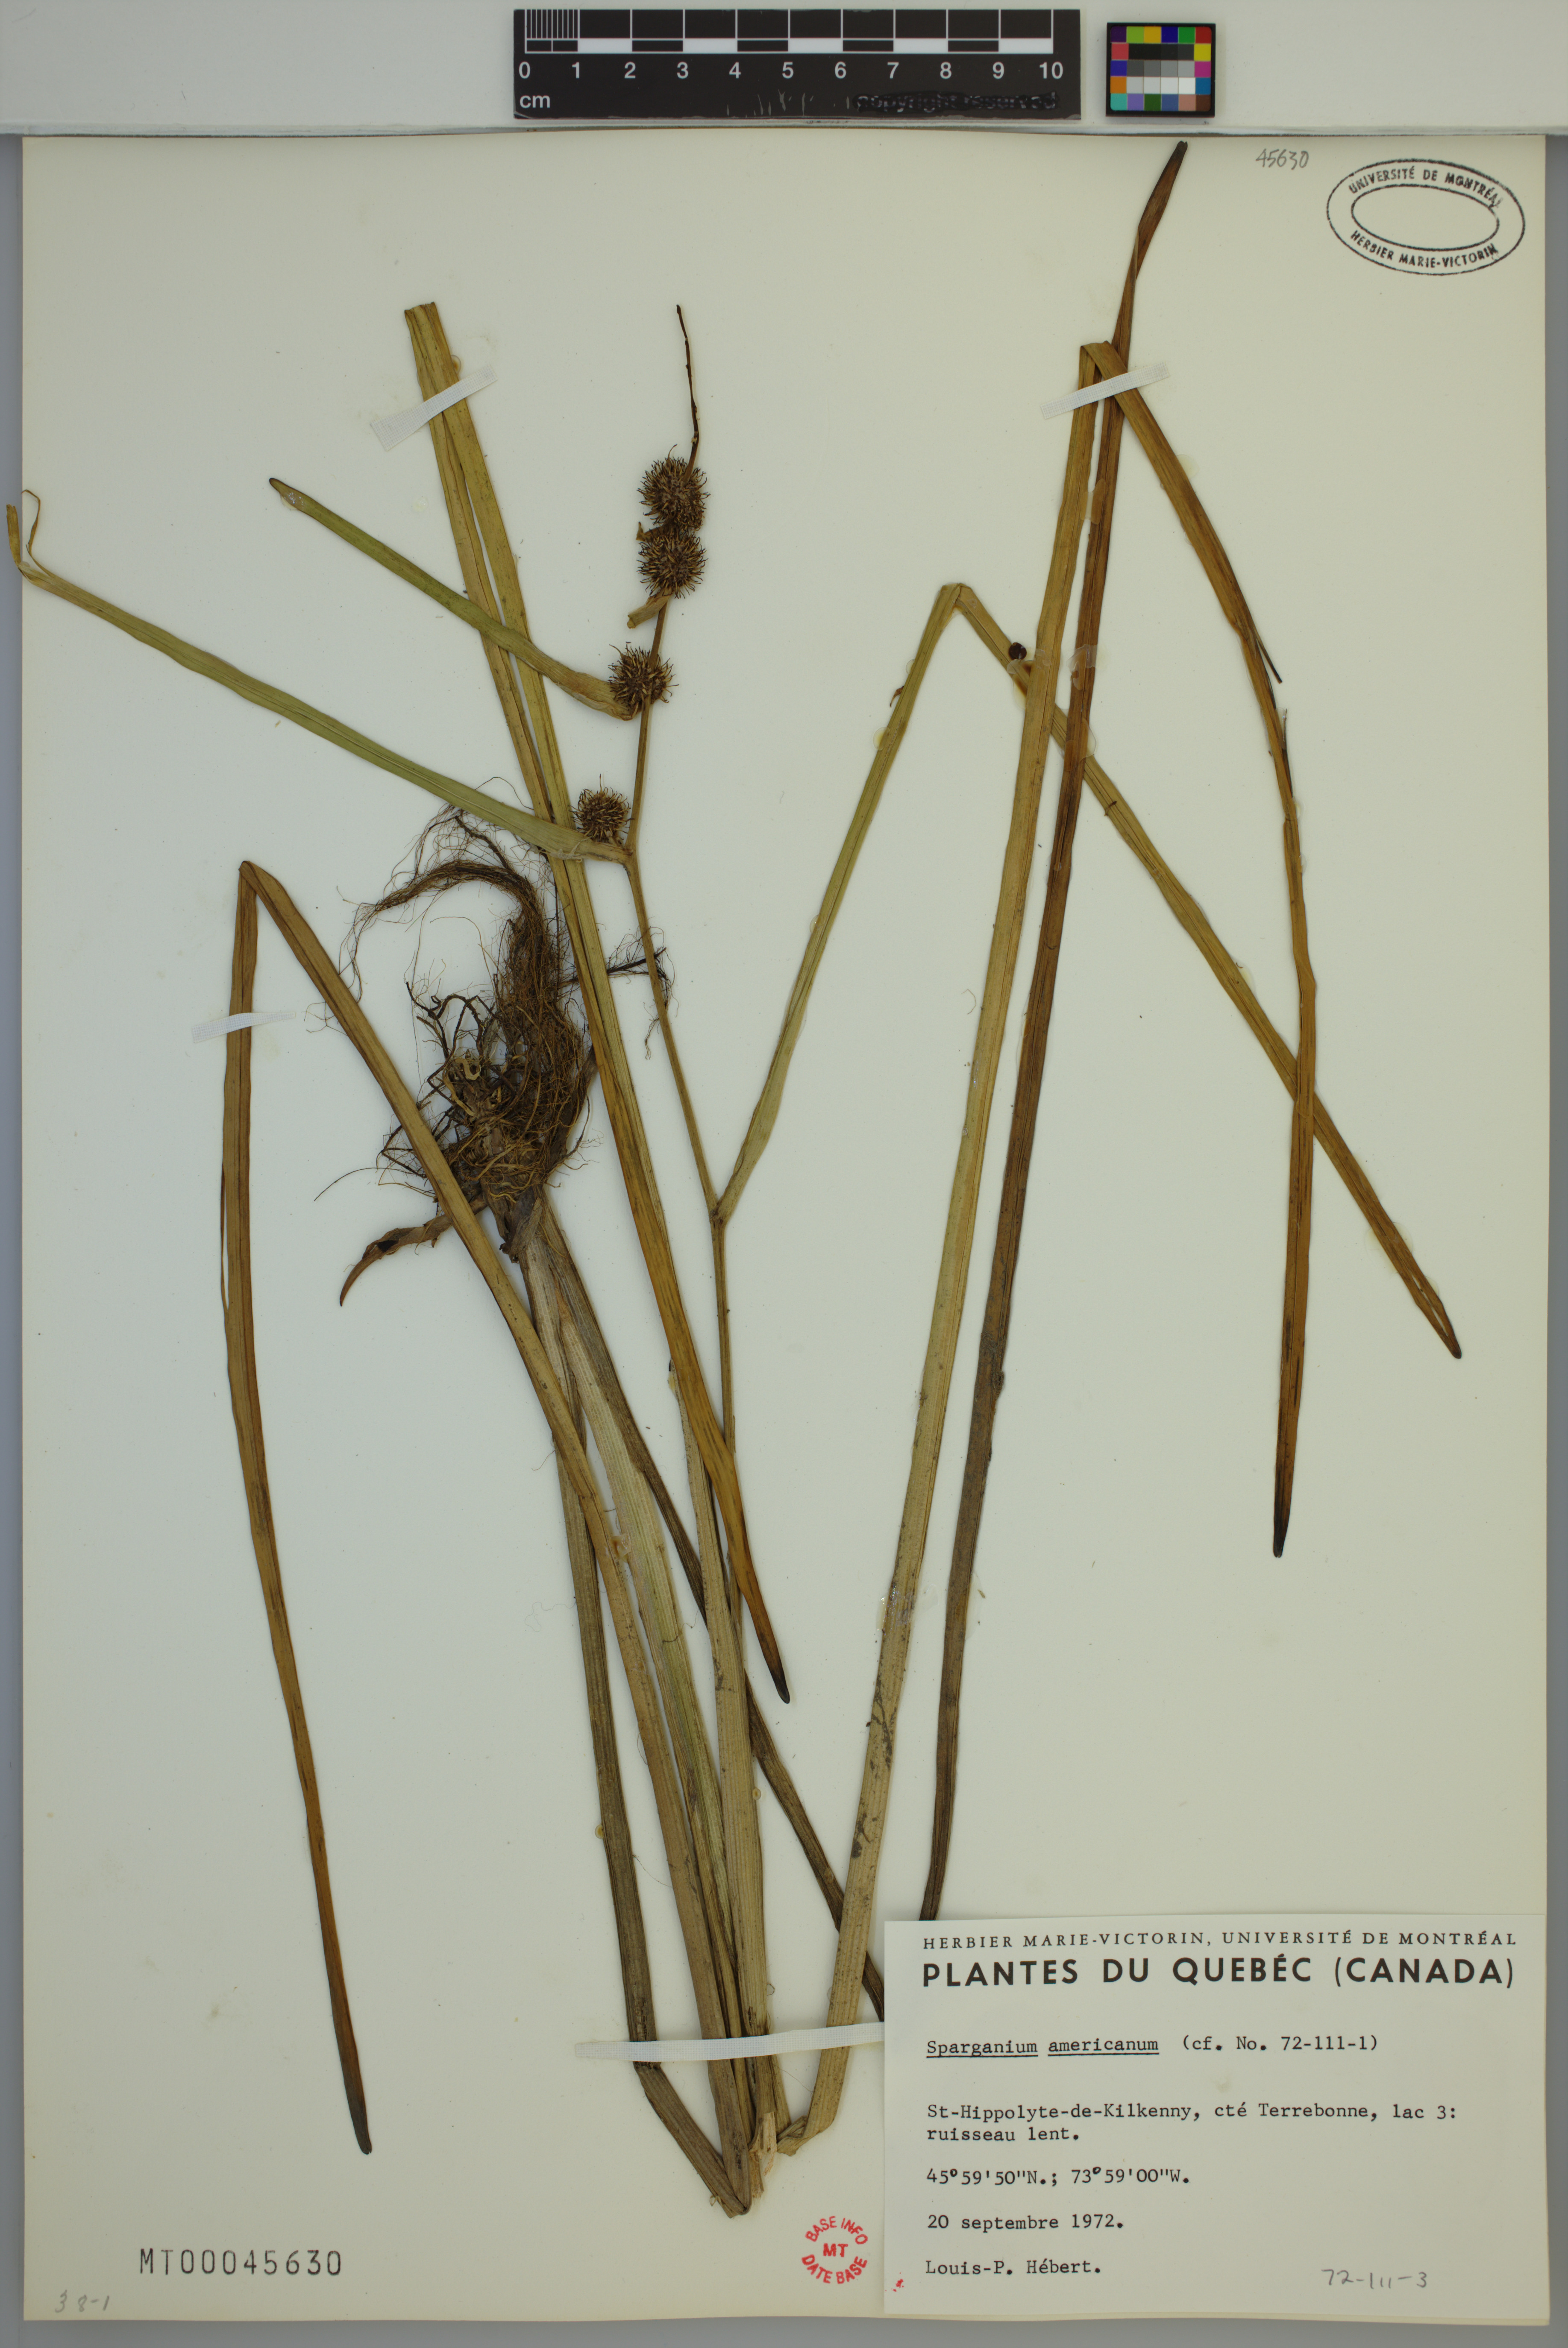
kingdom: Plantae
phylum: Tracheophyta
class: Liliopsida
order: Poales
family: Typhaceae
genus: Sparganium
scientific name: Sparganium americanum
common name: American burreed
